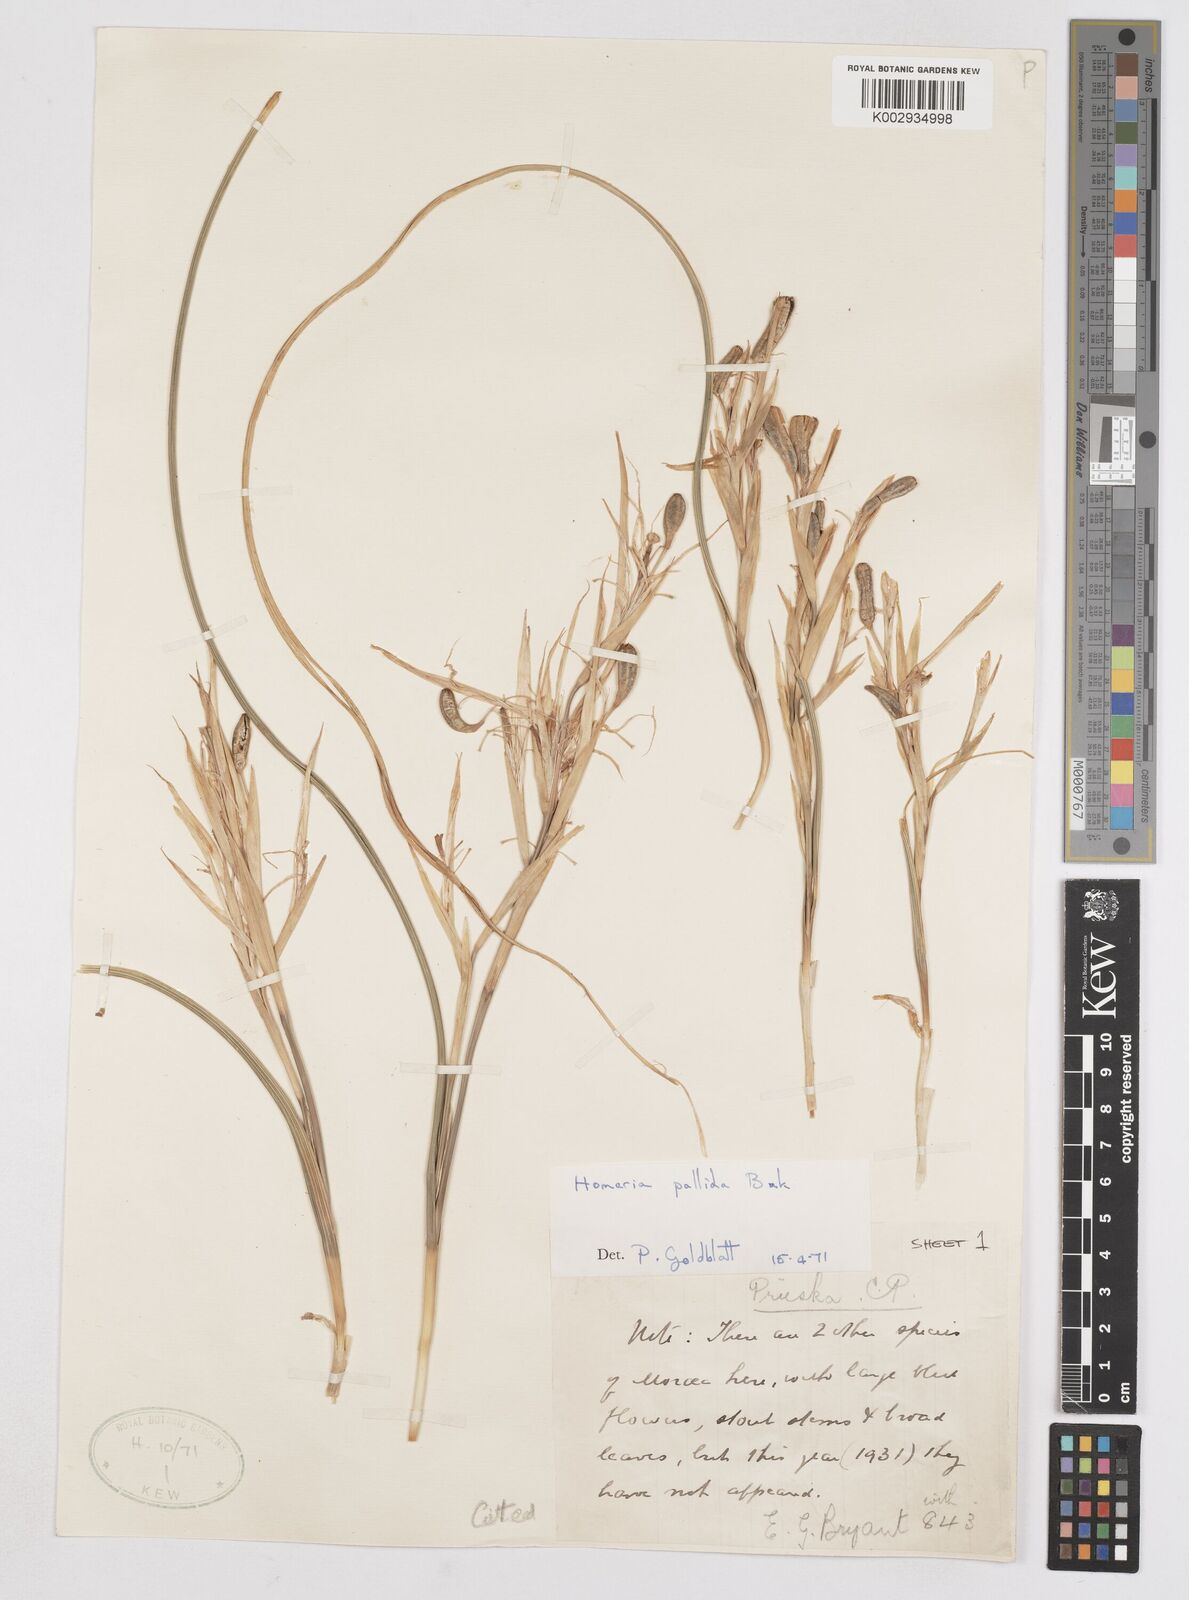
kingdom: Plantae
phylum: Tracheophyta
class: Liliopsida
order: Asparagales
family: Iridaceae
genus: Moraea
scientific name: Moraea pallida
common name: Yellow tulp
